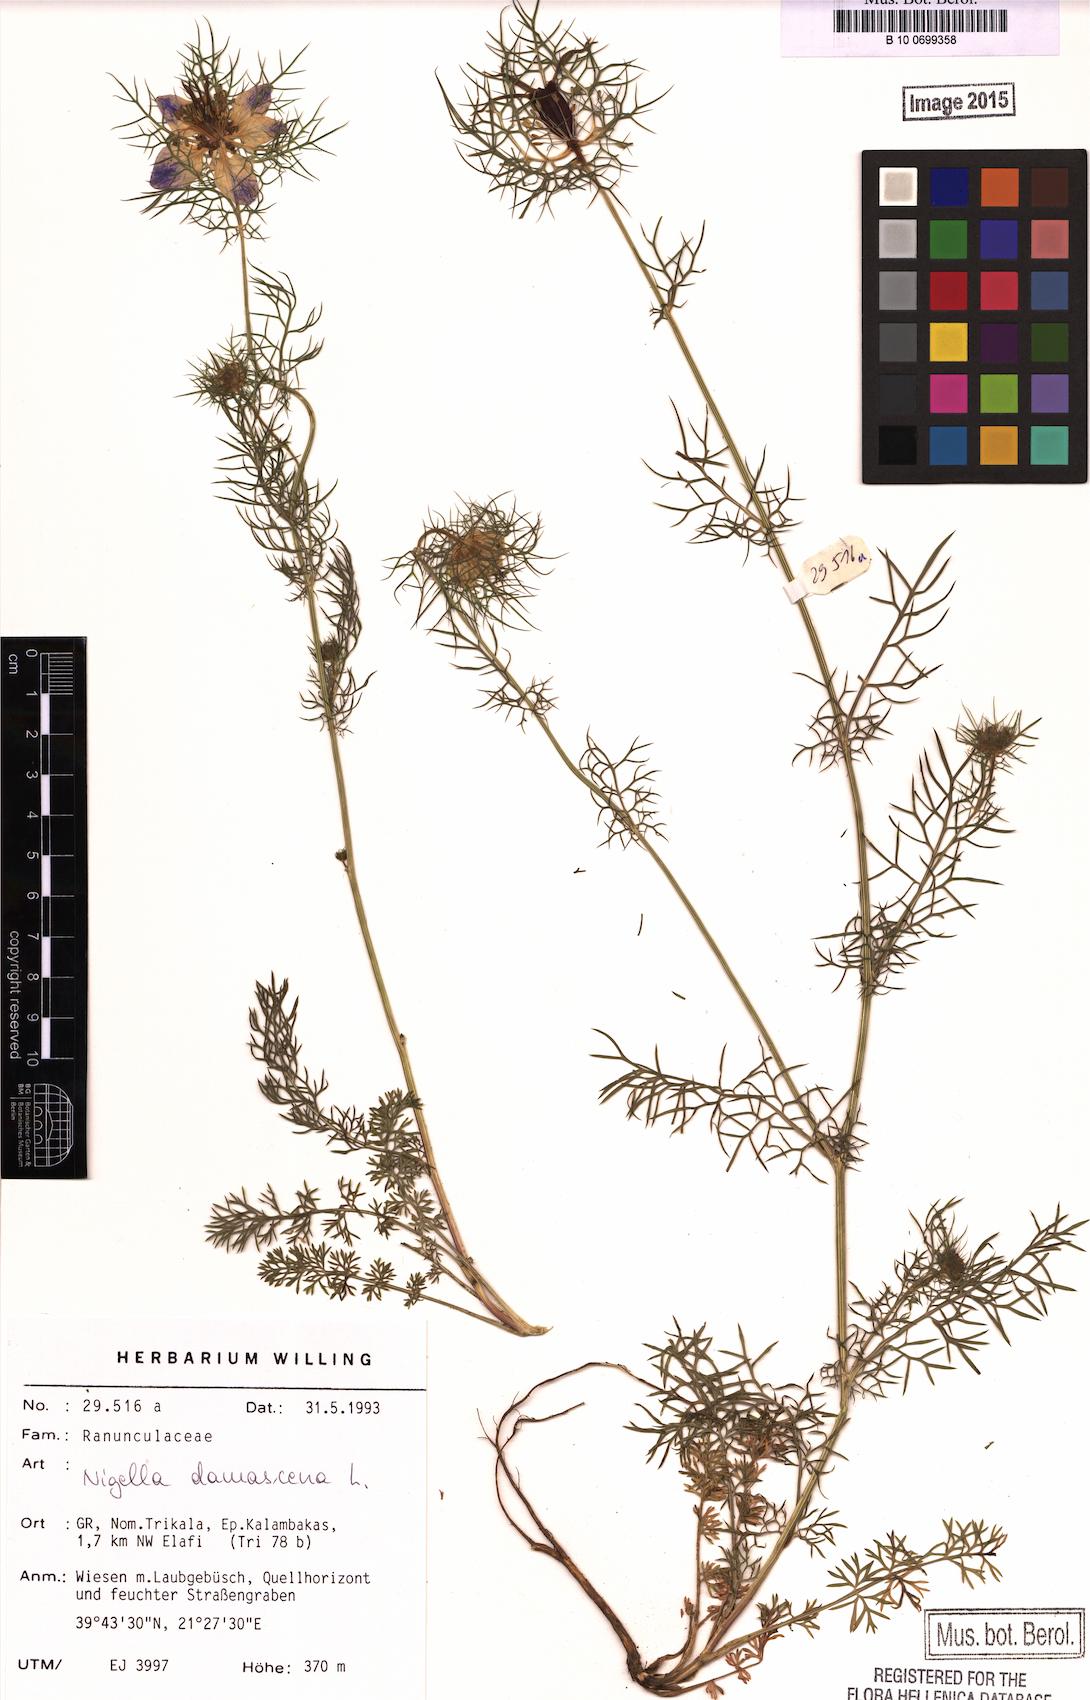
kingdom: Plantae
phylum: Tracheophyta
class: Magnoliopsida
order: Ranunculales
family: Ranunculaceae
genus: Nigella
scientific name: Nigella damascena
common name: Love-in-a-mist
